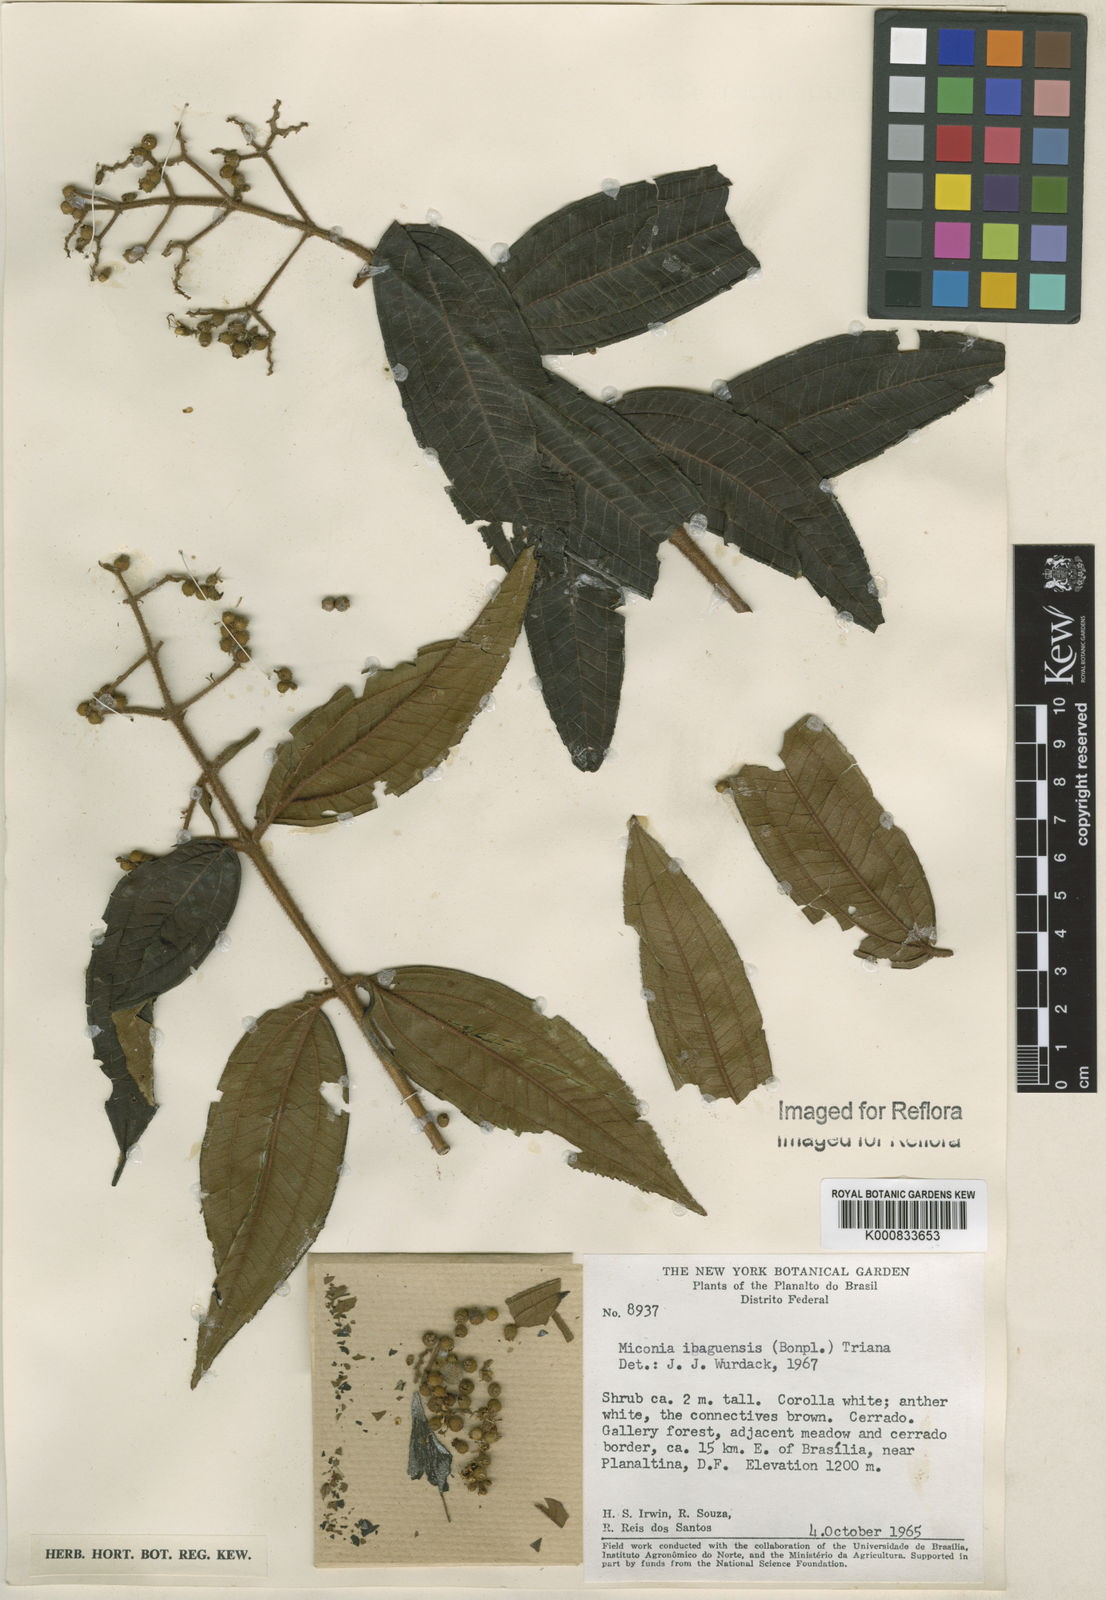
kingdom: Plantae
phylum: Tracheophyta
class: Magnoliopsida
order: Myrtales
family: Melastomataceae
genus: Miconia
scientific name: Miconia ibaguensis
